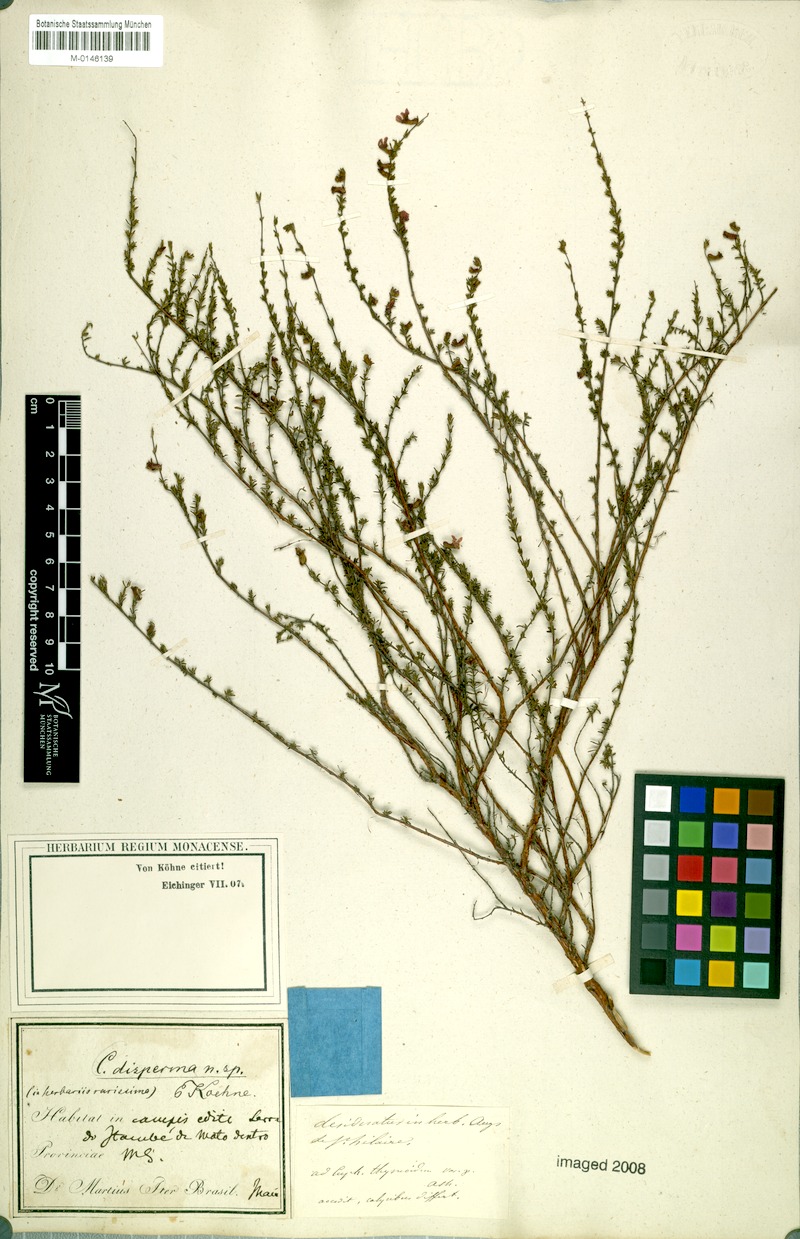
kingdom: Plantae
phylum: Tracheophyta
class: Magnoliopsida
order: Myrtales
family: Lythraceae
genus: Cuphea
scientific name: Cuphea disperma
